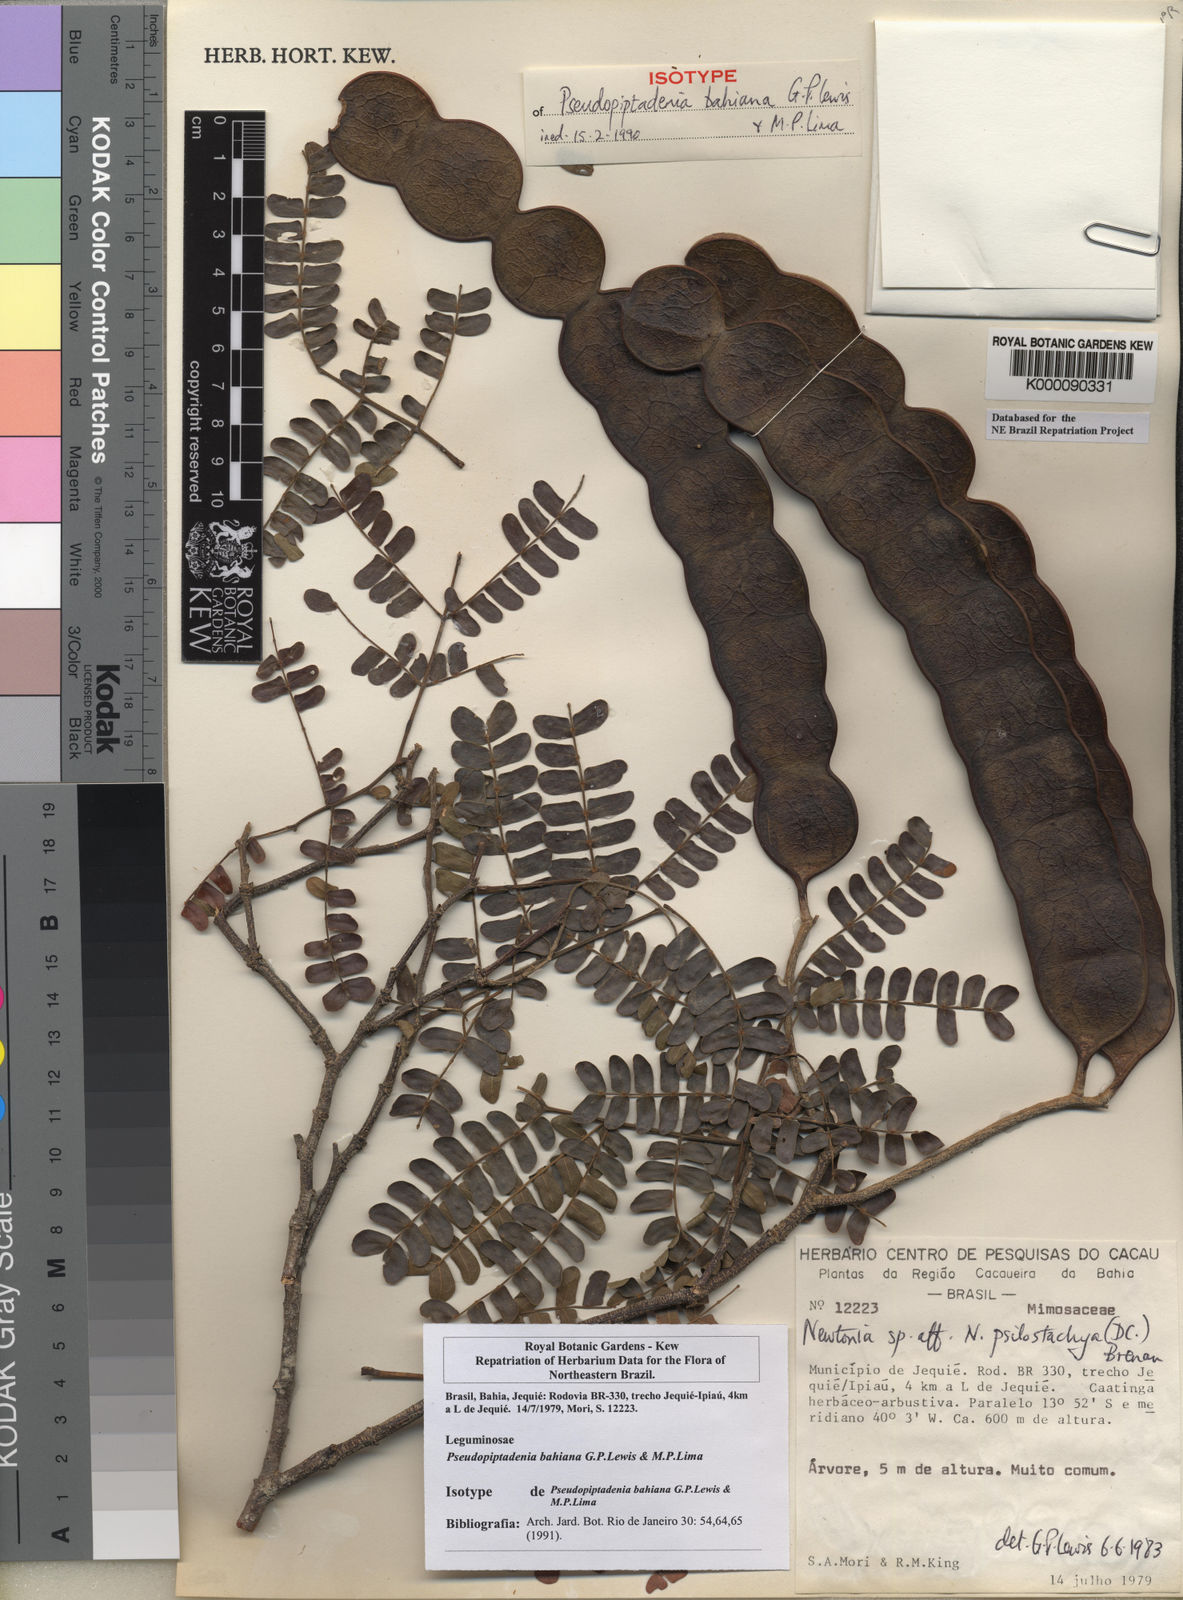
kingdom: Plantae
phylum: Tracheophyta
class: Magnoliopsida
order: Fabales
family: Fabaceae
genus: Pseudopiptadenia
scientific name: Pseudopiptadenia bahiana
